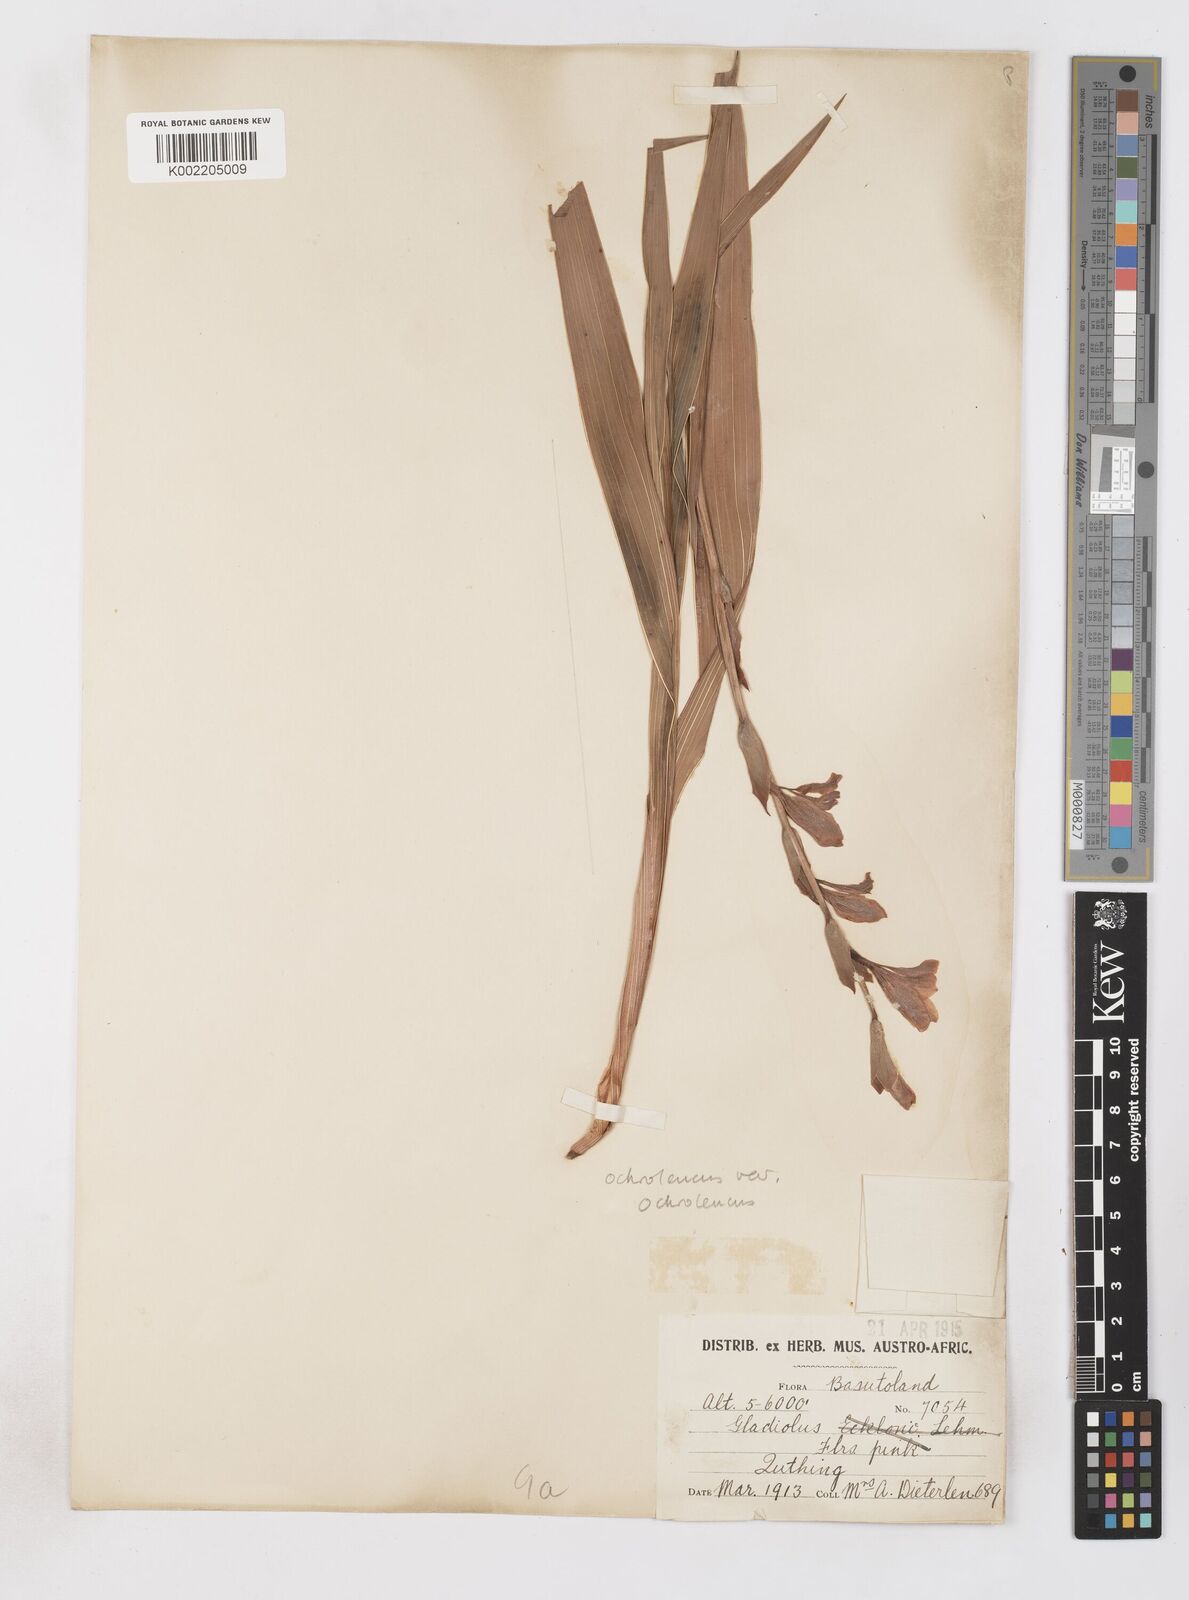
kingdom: Plantae
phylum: Tracheophyta
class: Liliopsida
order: Asparagales
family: Iridaceae
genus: Gladiolus
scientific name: Gladiolus ochroleucus
